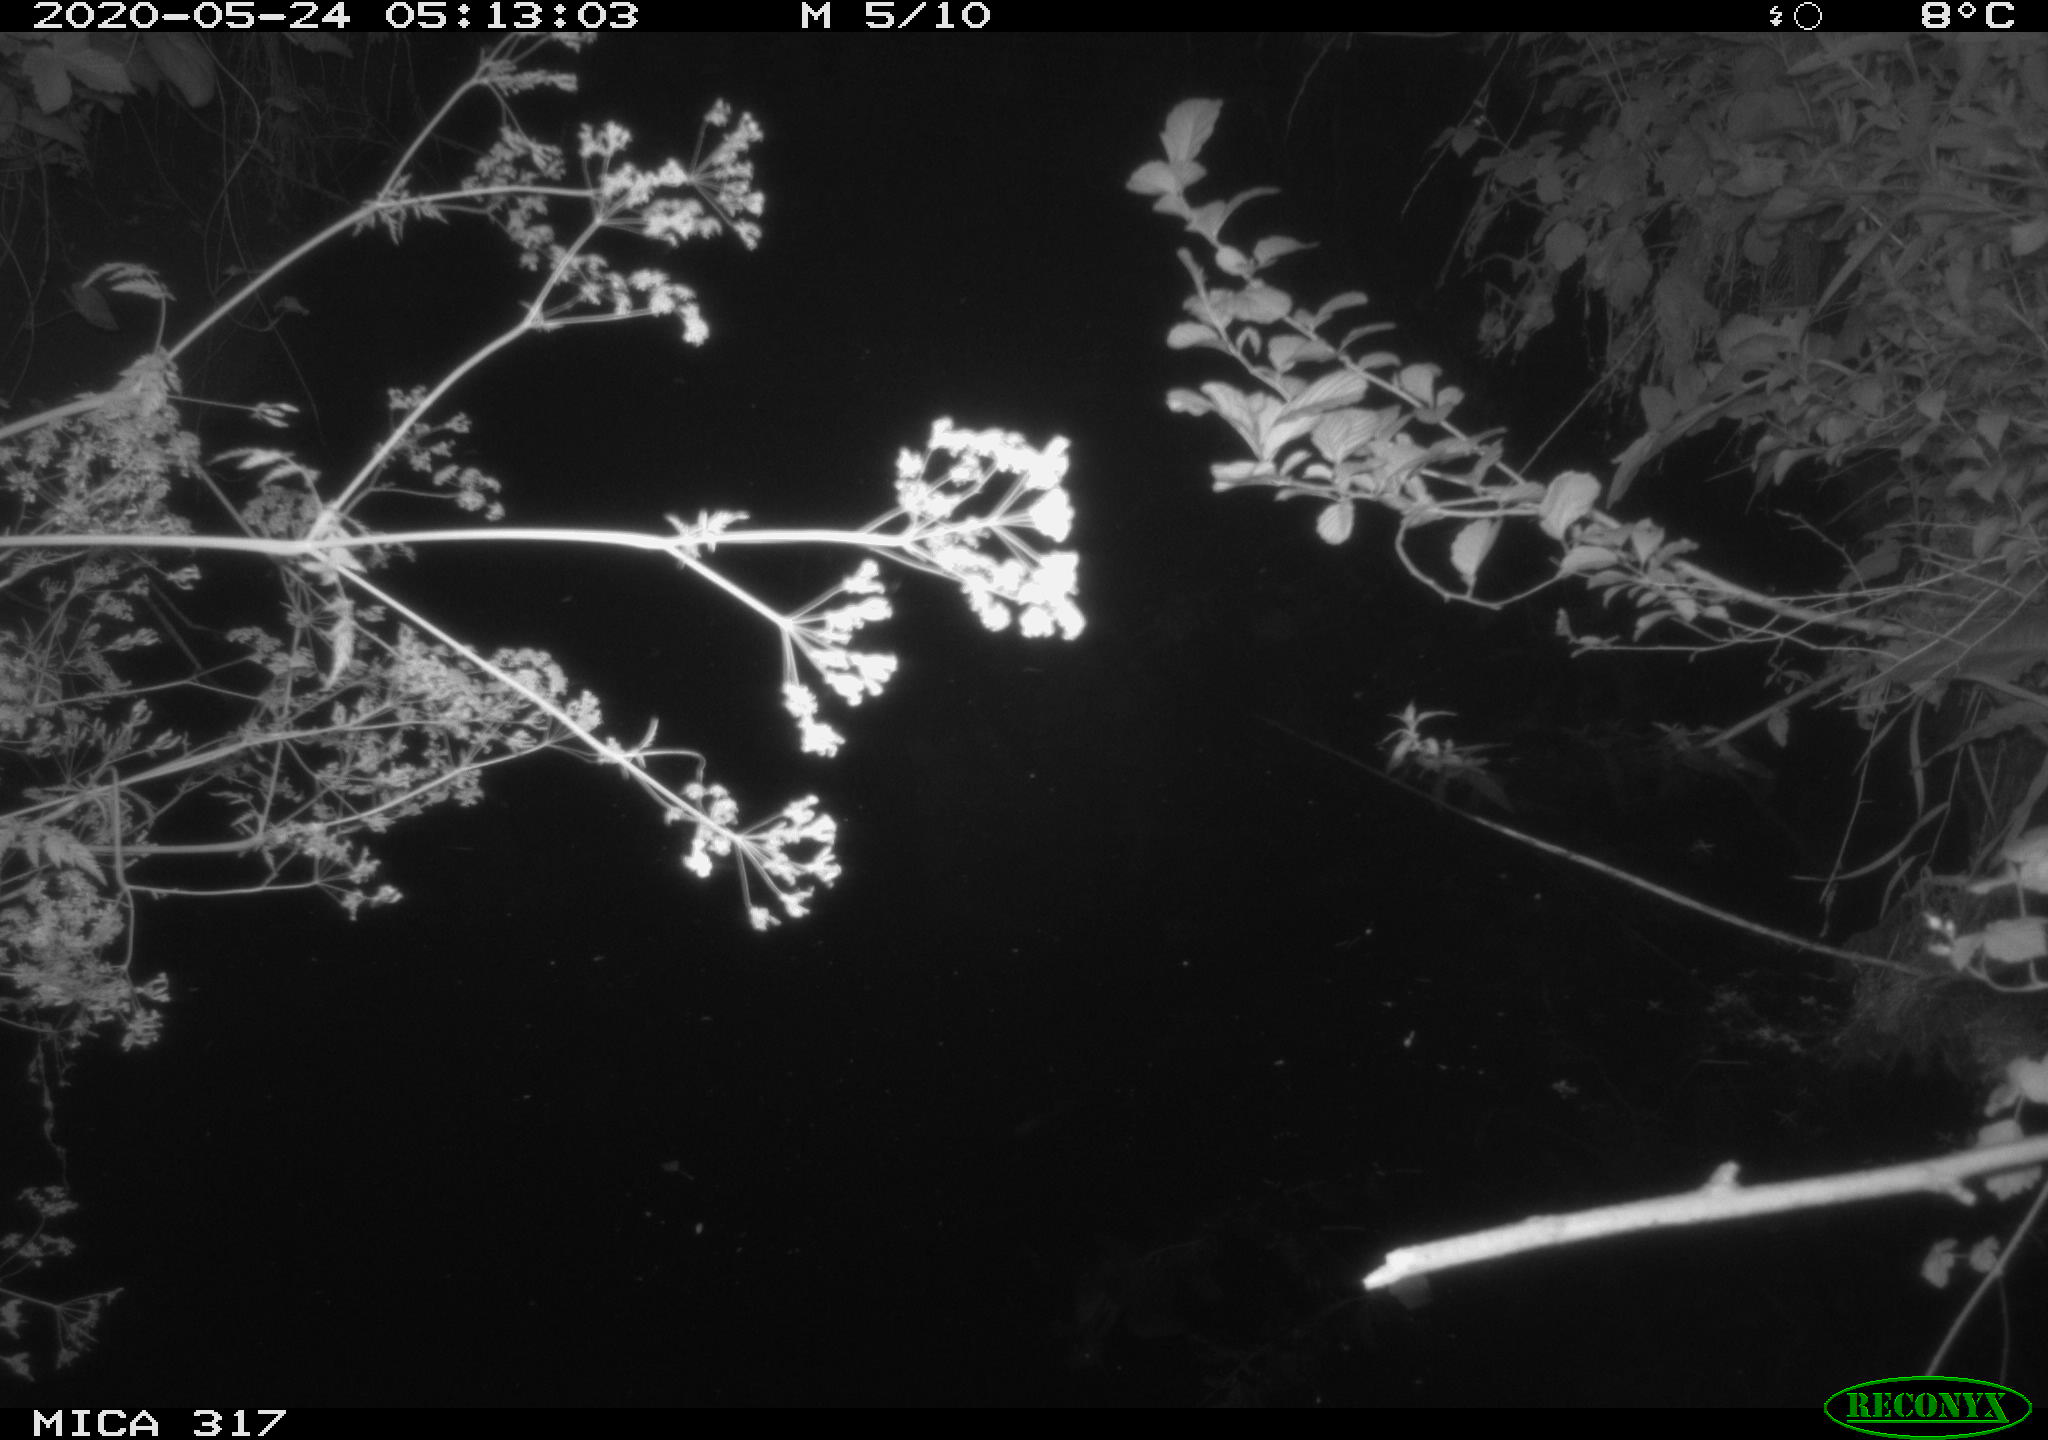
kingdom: Animalia
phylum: Chordata
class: Aves
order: Anseriformes
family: Anatidae
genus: Anas
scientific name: Anas platyrhynchos
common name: Mallard
